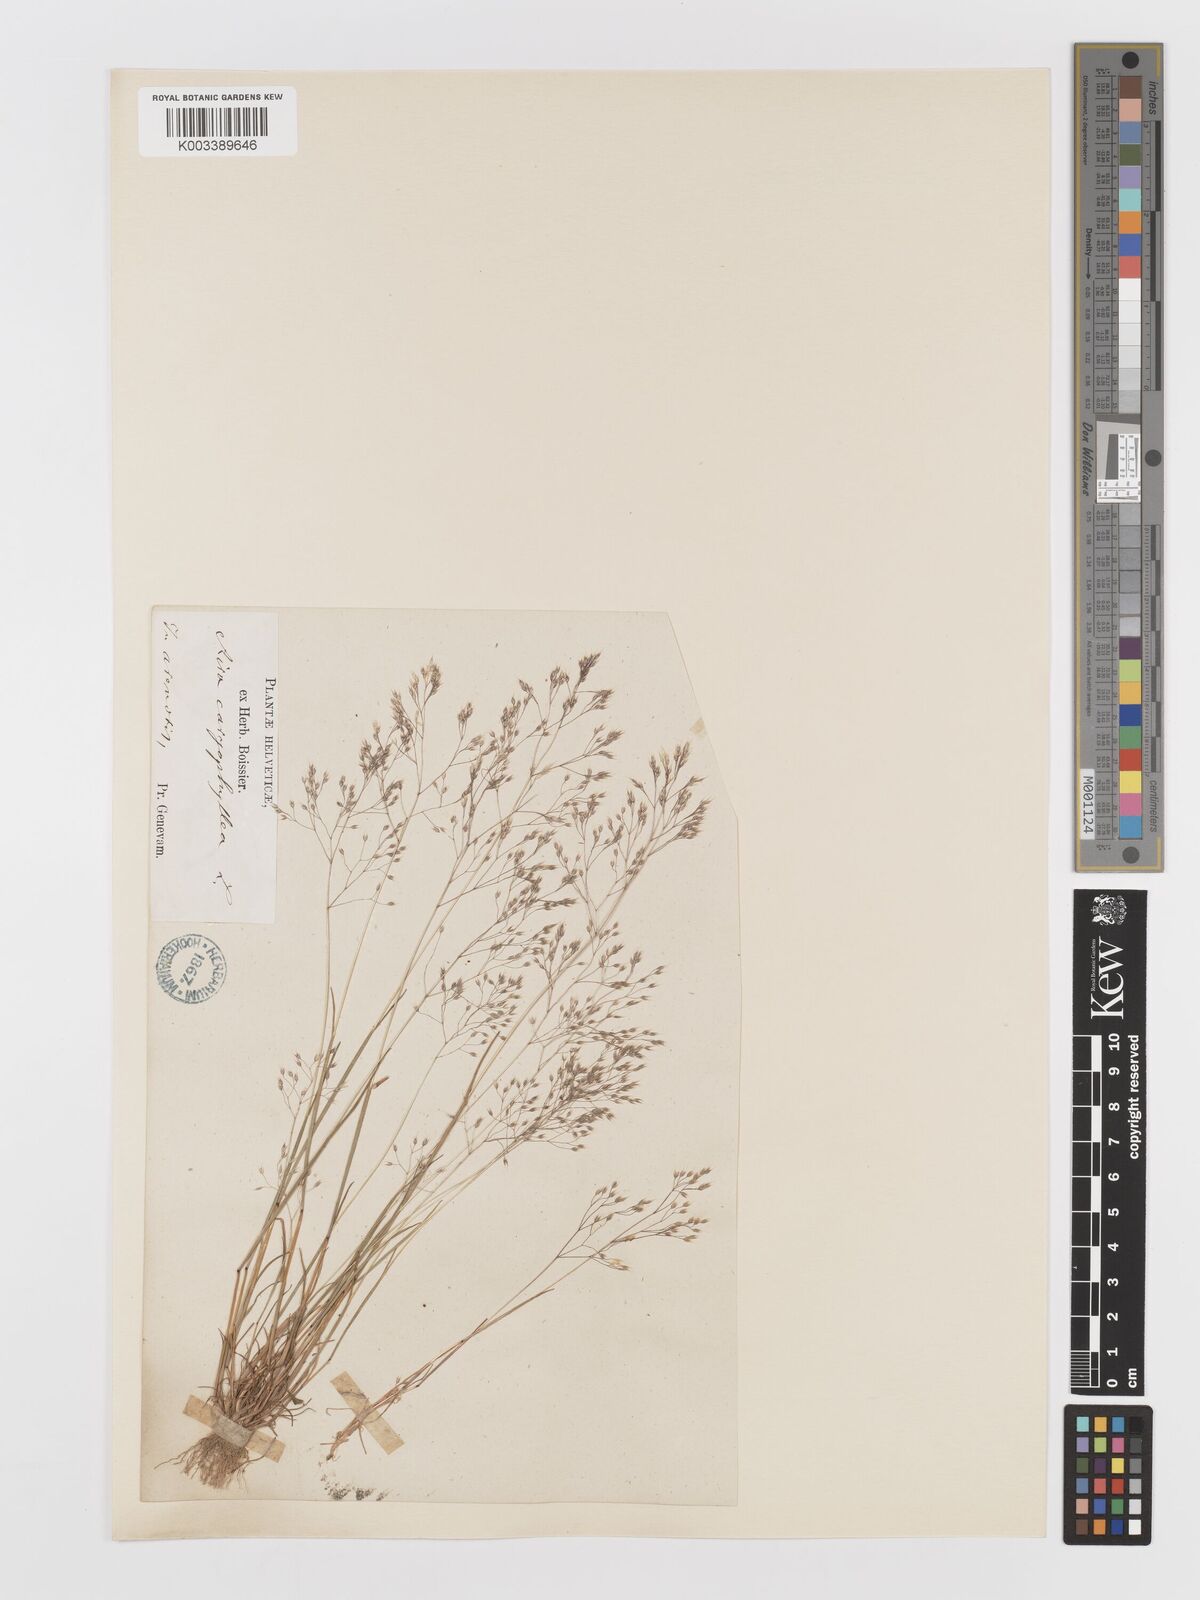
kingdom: Plantae
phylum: Tracheophyta
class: Liliopsida
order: Poales
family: Poaceae
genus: Aira
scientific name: Aira caryophyllea
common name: Silver hairgrass
